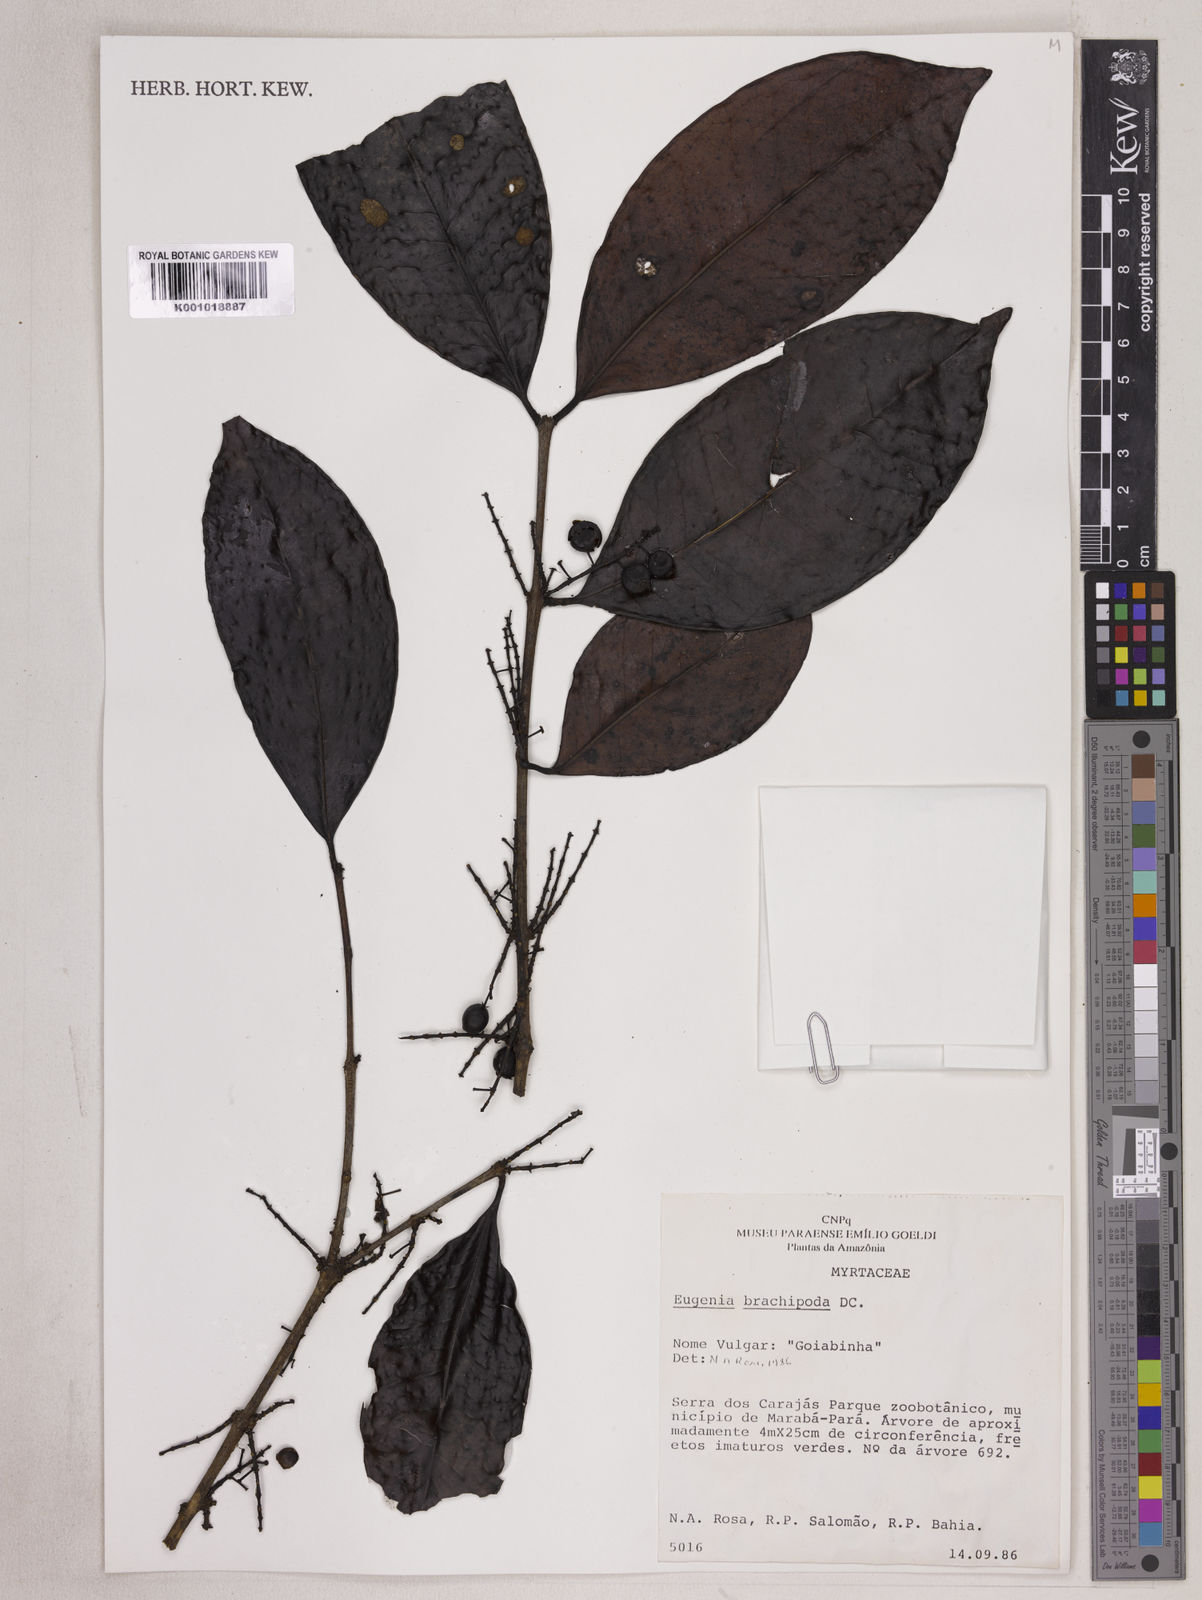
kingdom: Plantae
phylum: Tracheophyta
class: Magnoliopsida
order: Myrtales
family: Myrtaceae
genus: Eugenia
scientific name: Eugenia densiracemosa
